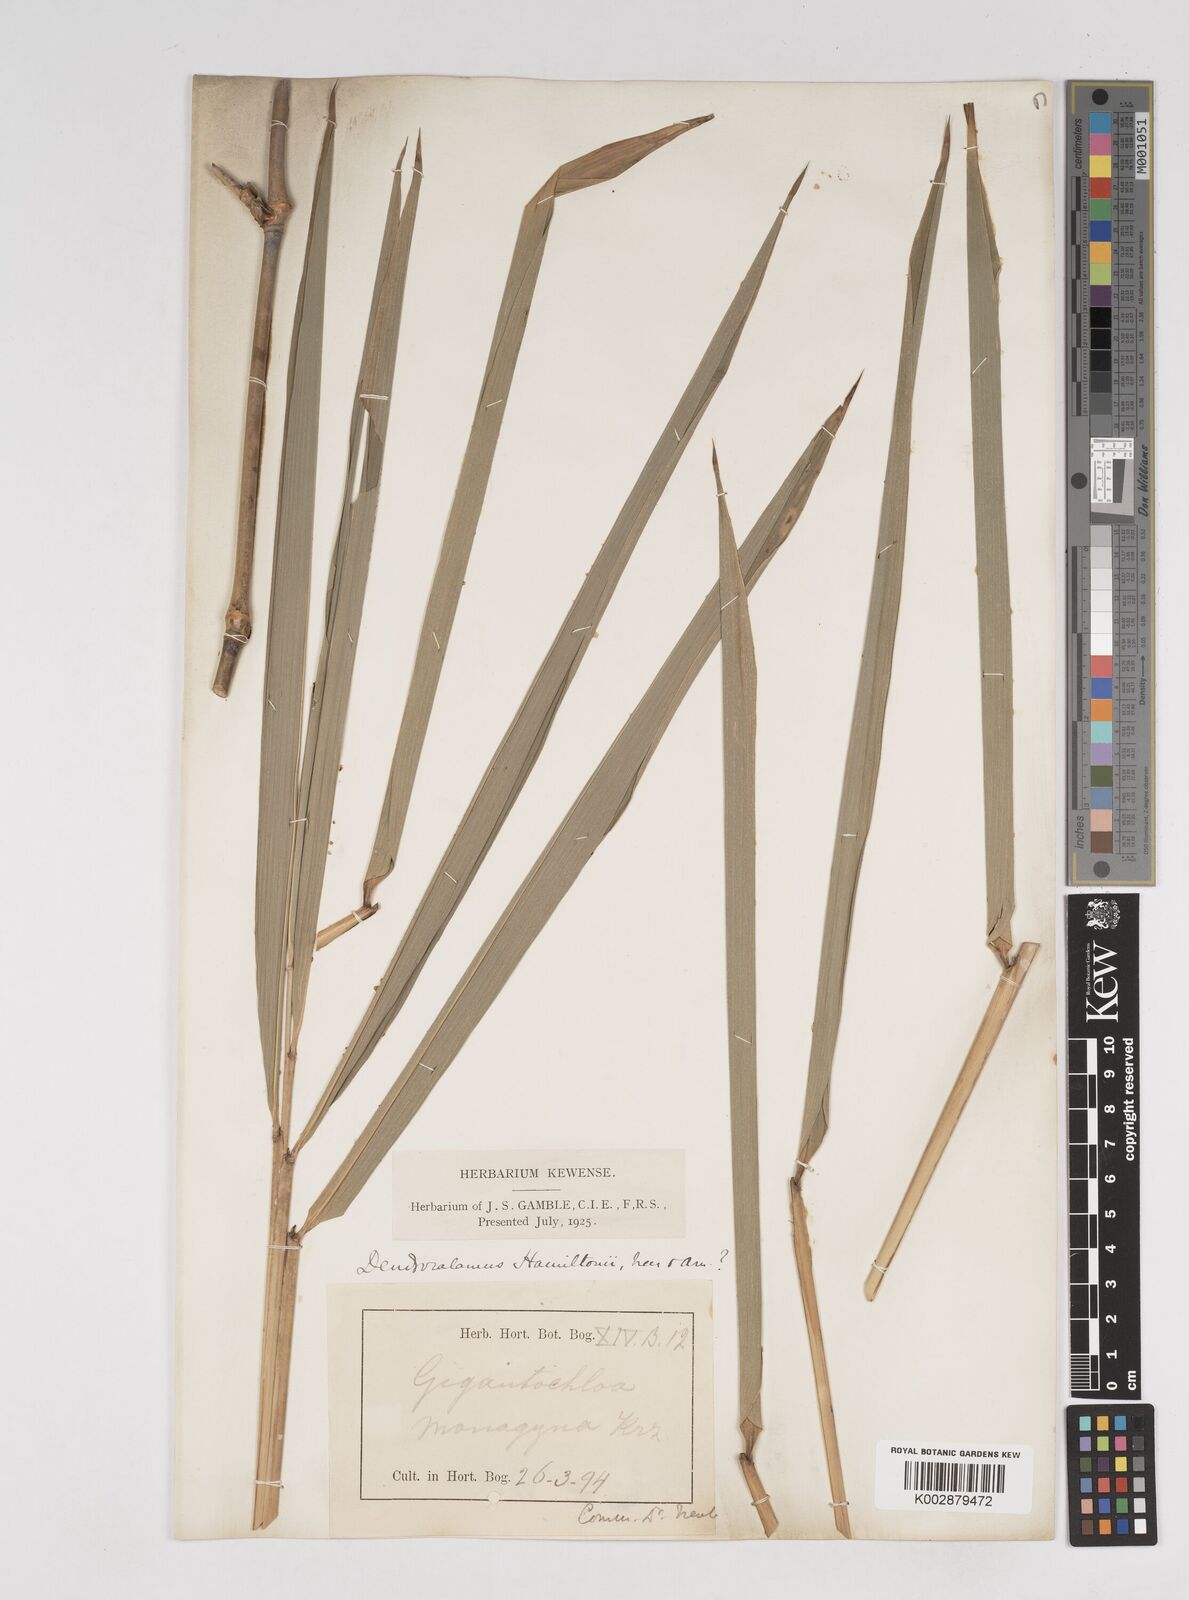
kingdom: Plantae
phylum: Tracheophyta
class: Liliopsida
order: Poales
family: Poaceae
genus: Dendrocalamus
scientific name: Dendrocalamus
